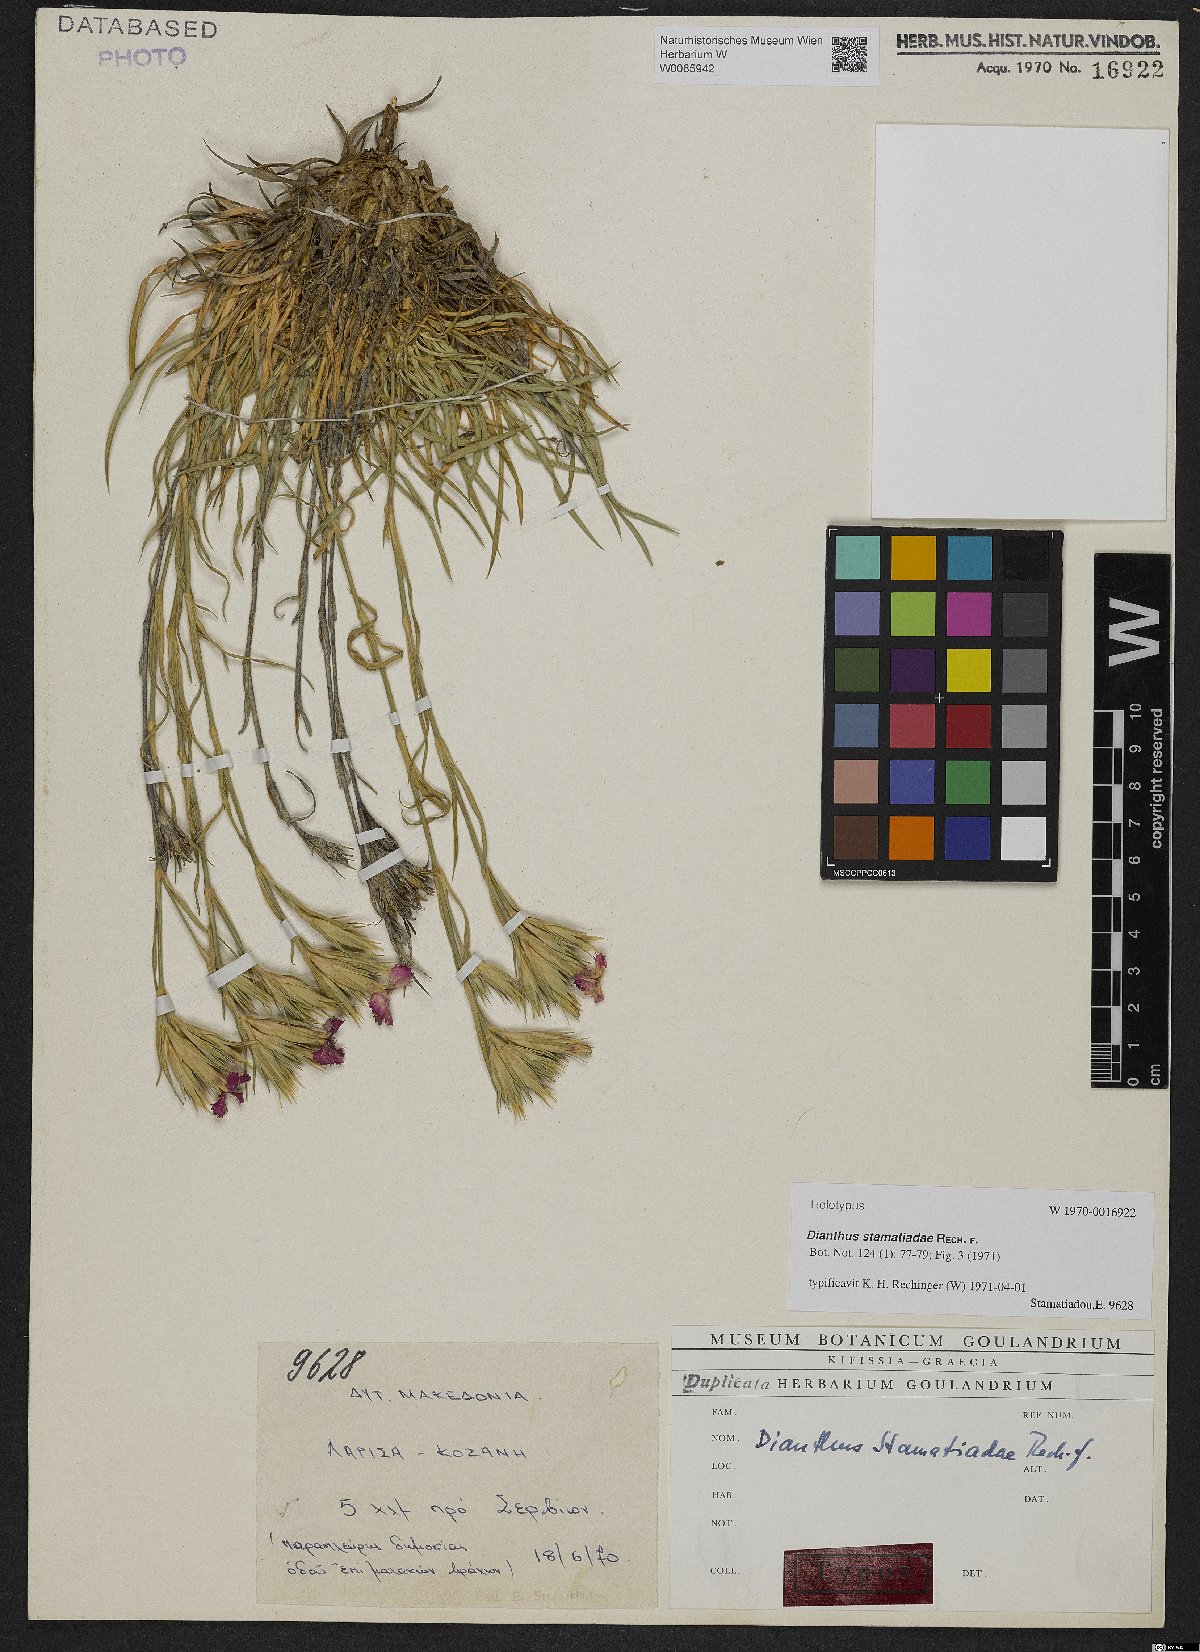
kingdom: Plantae
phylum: Tracheophyta
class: Magnoliopsida
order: Caryophyllales
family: Caryophyllaceae
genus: Dianthus
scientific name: Dianthus stamatiadae
